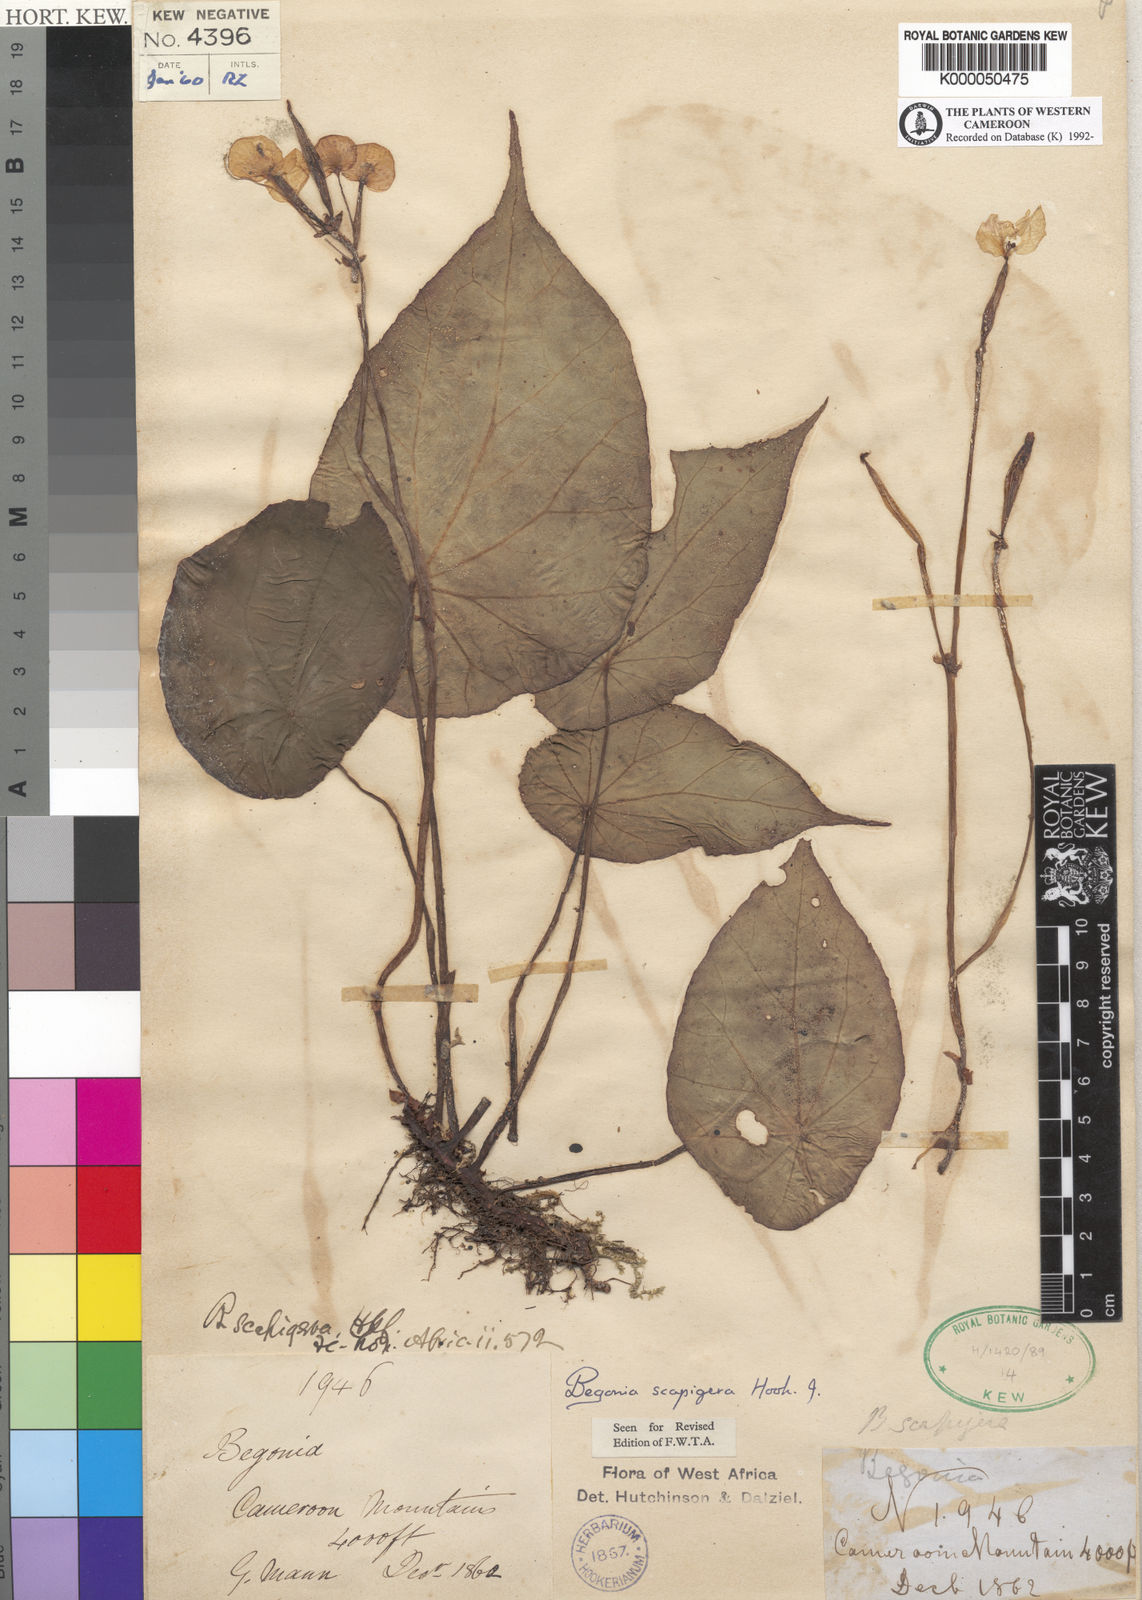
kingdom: Plantae
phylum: Tracheophyta
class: Magnoliopsida
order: Cucurbitales
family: Begoniaceae
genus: Begonia
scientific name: Begonia scapigera
